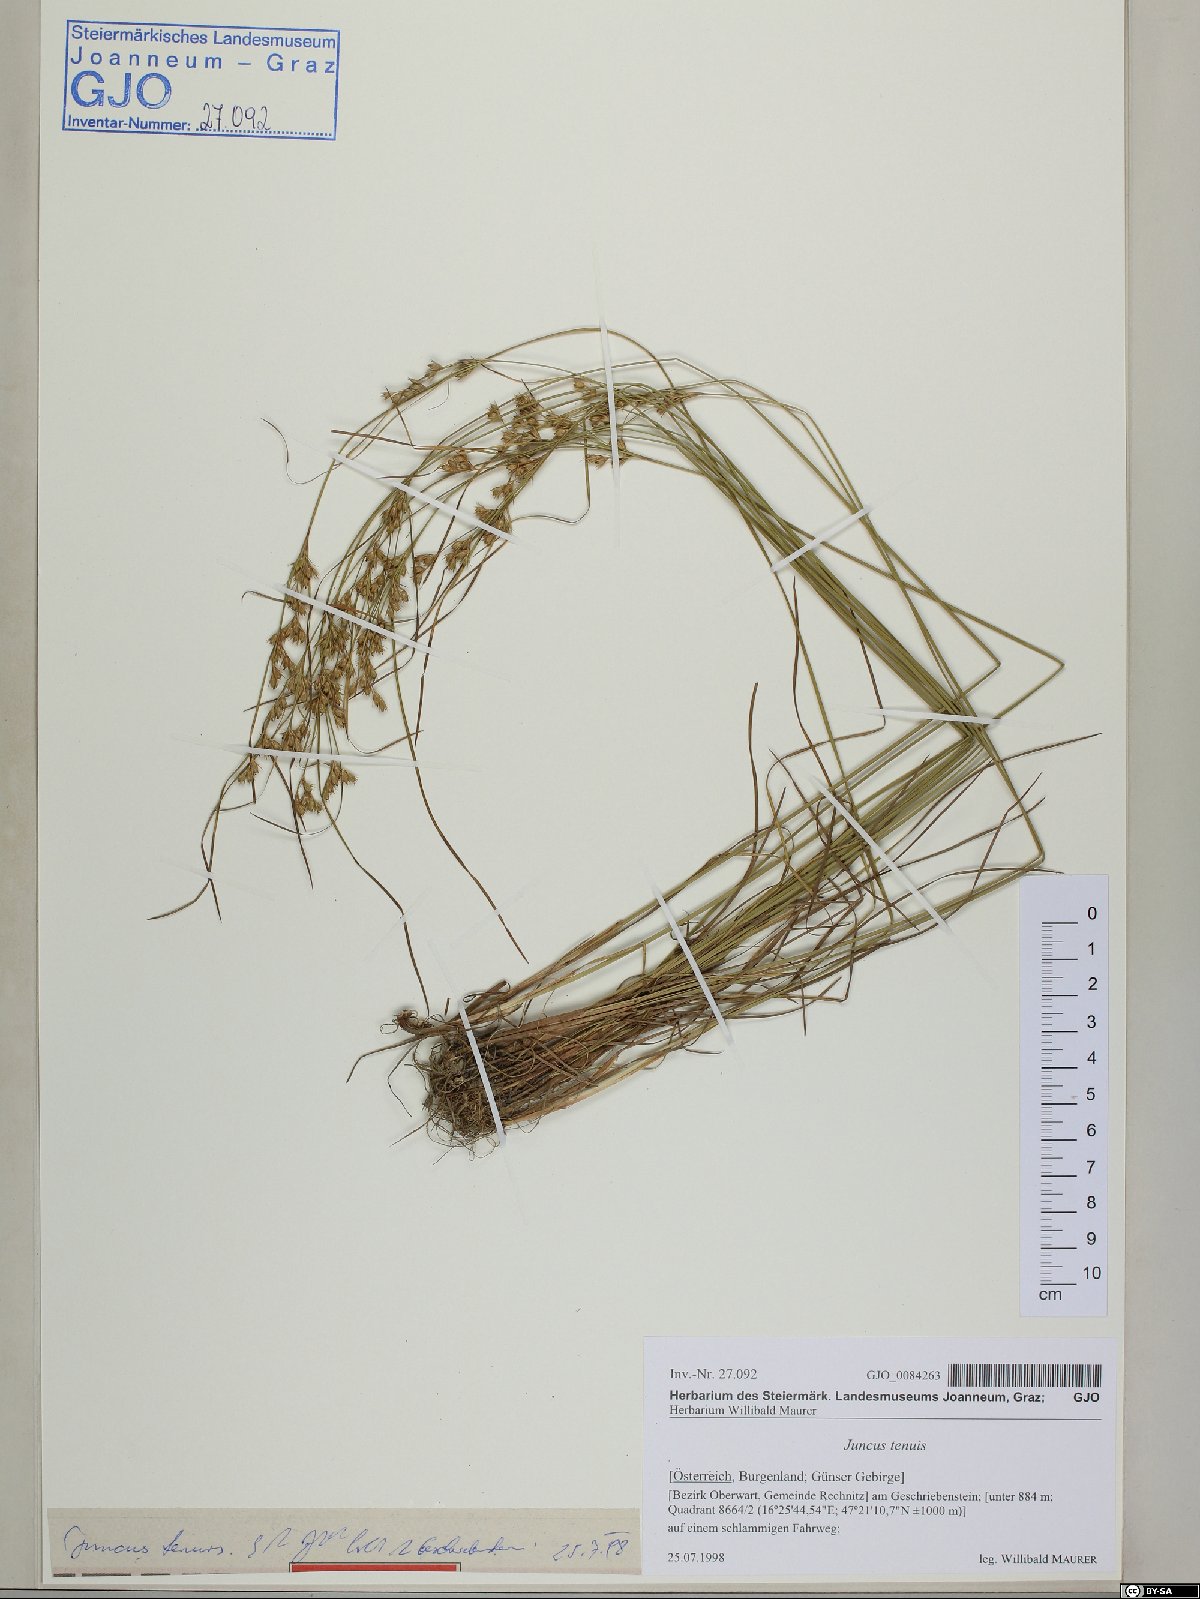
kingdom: Plantae
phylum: Tracheophyta
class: Liliopsida
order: Poales
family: Juncaceae
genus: Juncus
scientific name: Juncus tenuis
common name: Slender rush
